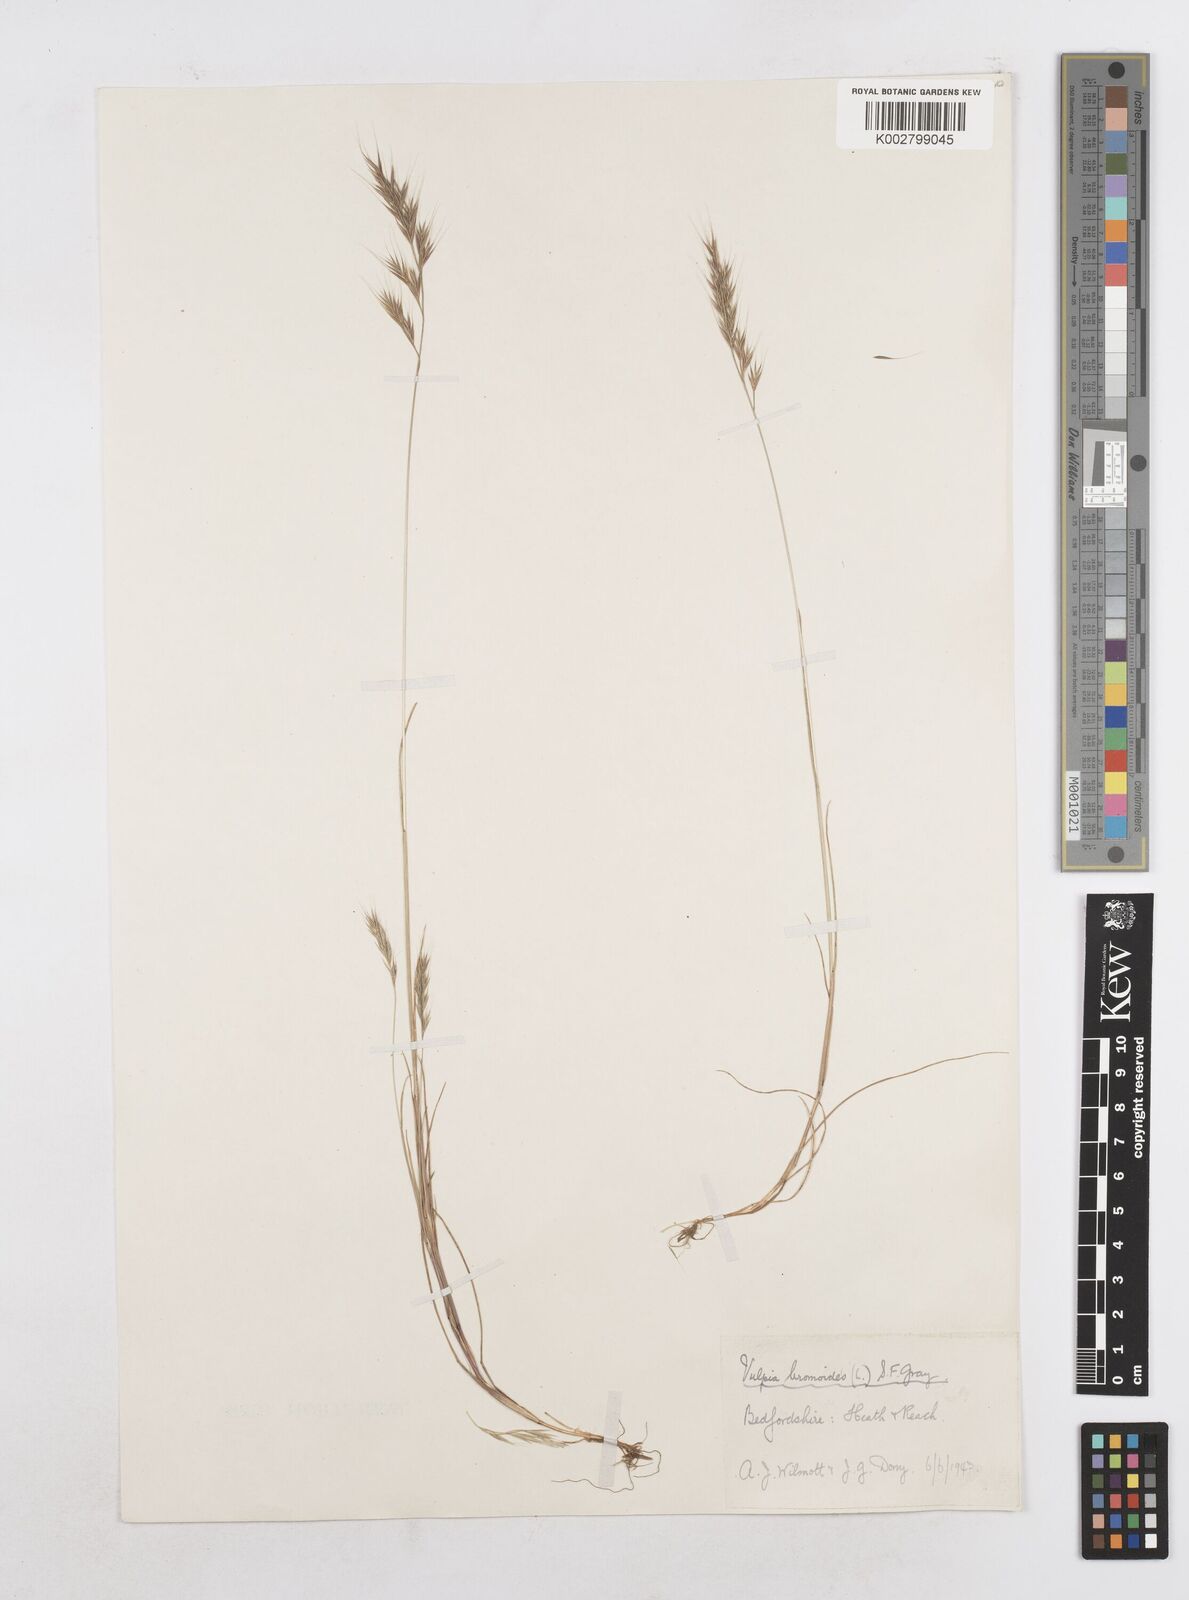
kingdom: Plantae
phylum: Tracheophyta
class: Liliopsida
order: Poales
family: Poaceae
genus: Festuca
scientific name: Festuca bromoides
